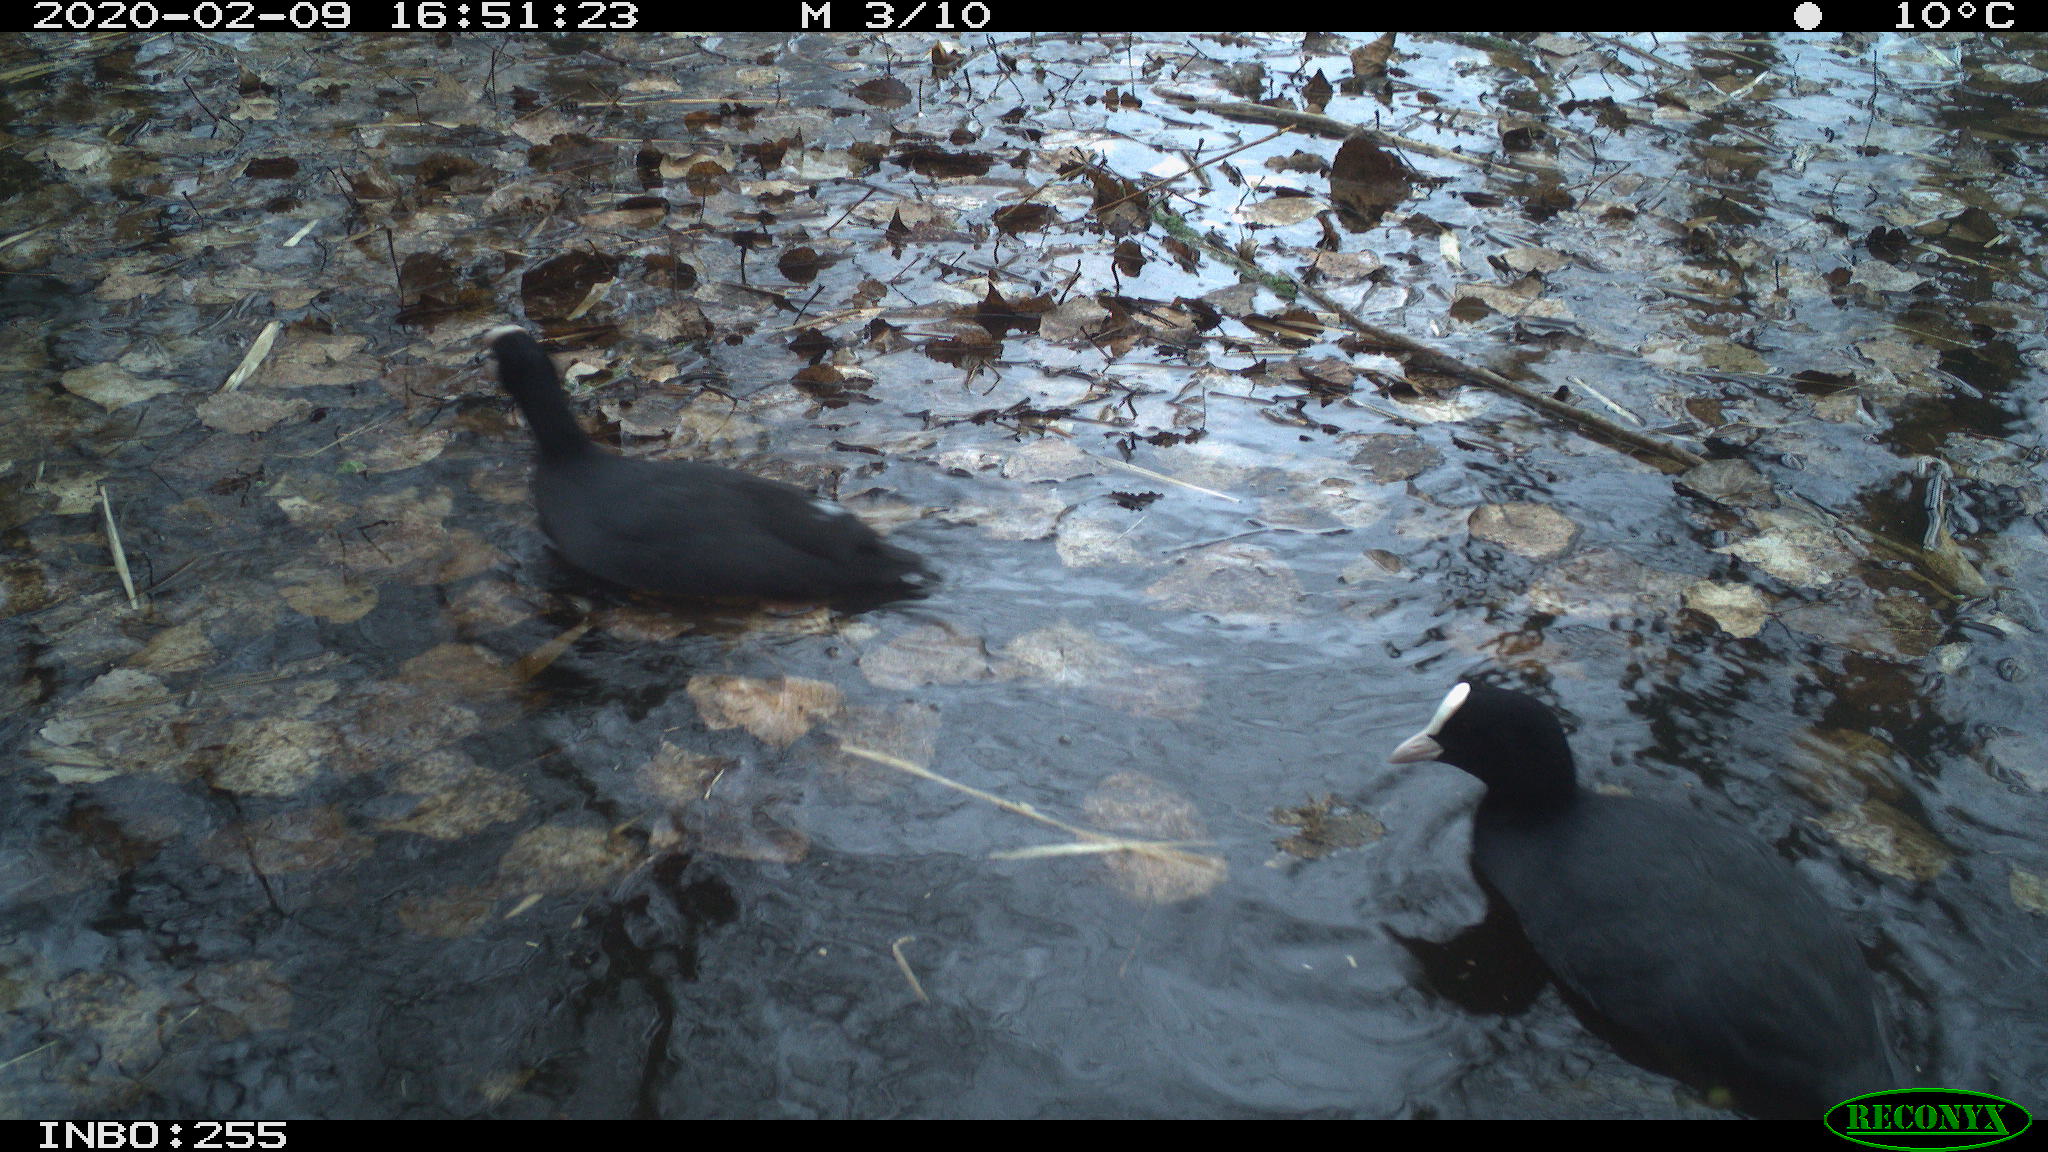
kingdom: Animalia
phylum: Chordata
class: Aves
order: Gruiformes
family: Rallidae
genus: Fulica
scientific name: Fulica atra
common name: Eurasian coot
